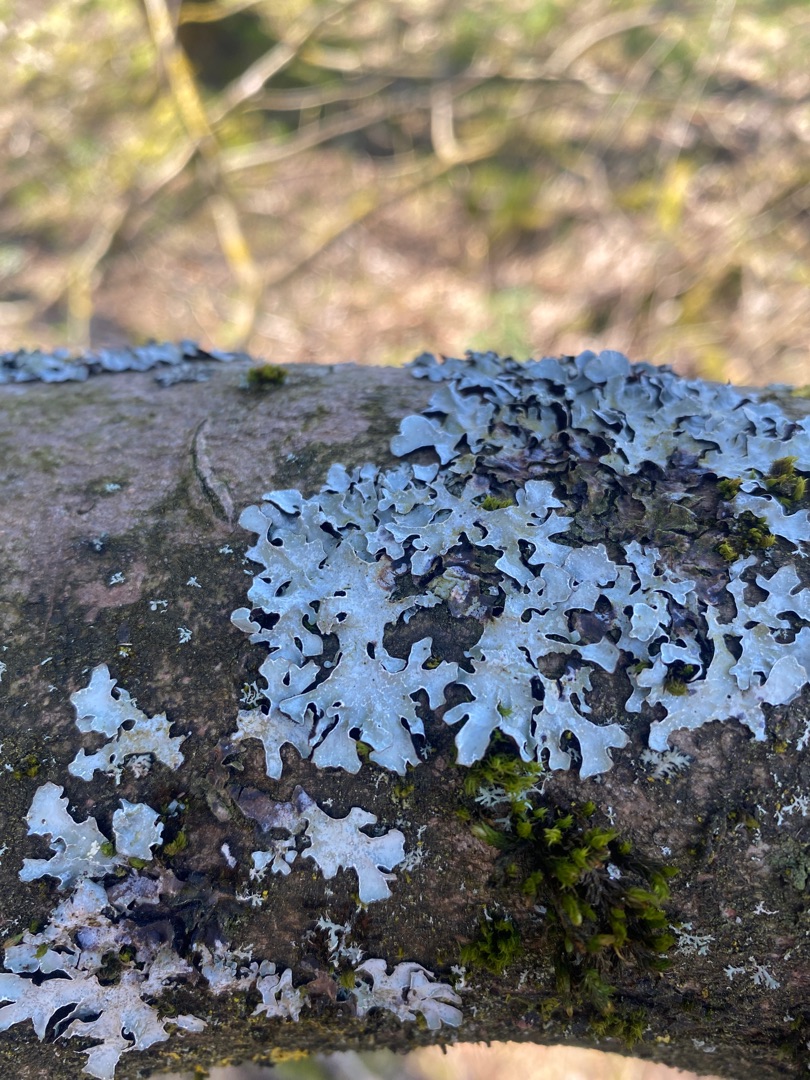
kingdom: Fungi
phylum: Ascomycota
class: Lecanoromycetes
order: Lecanorales
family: Parmeliaceae
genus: Parmelia
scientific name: Parmelia sulcata
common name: Rynket skållav
